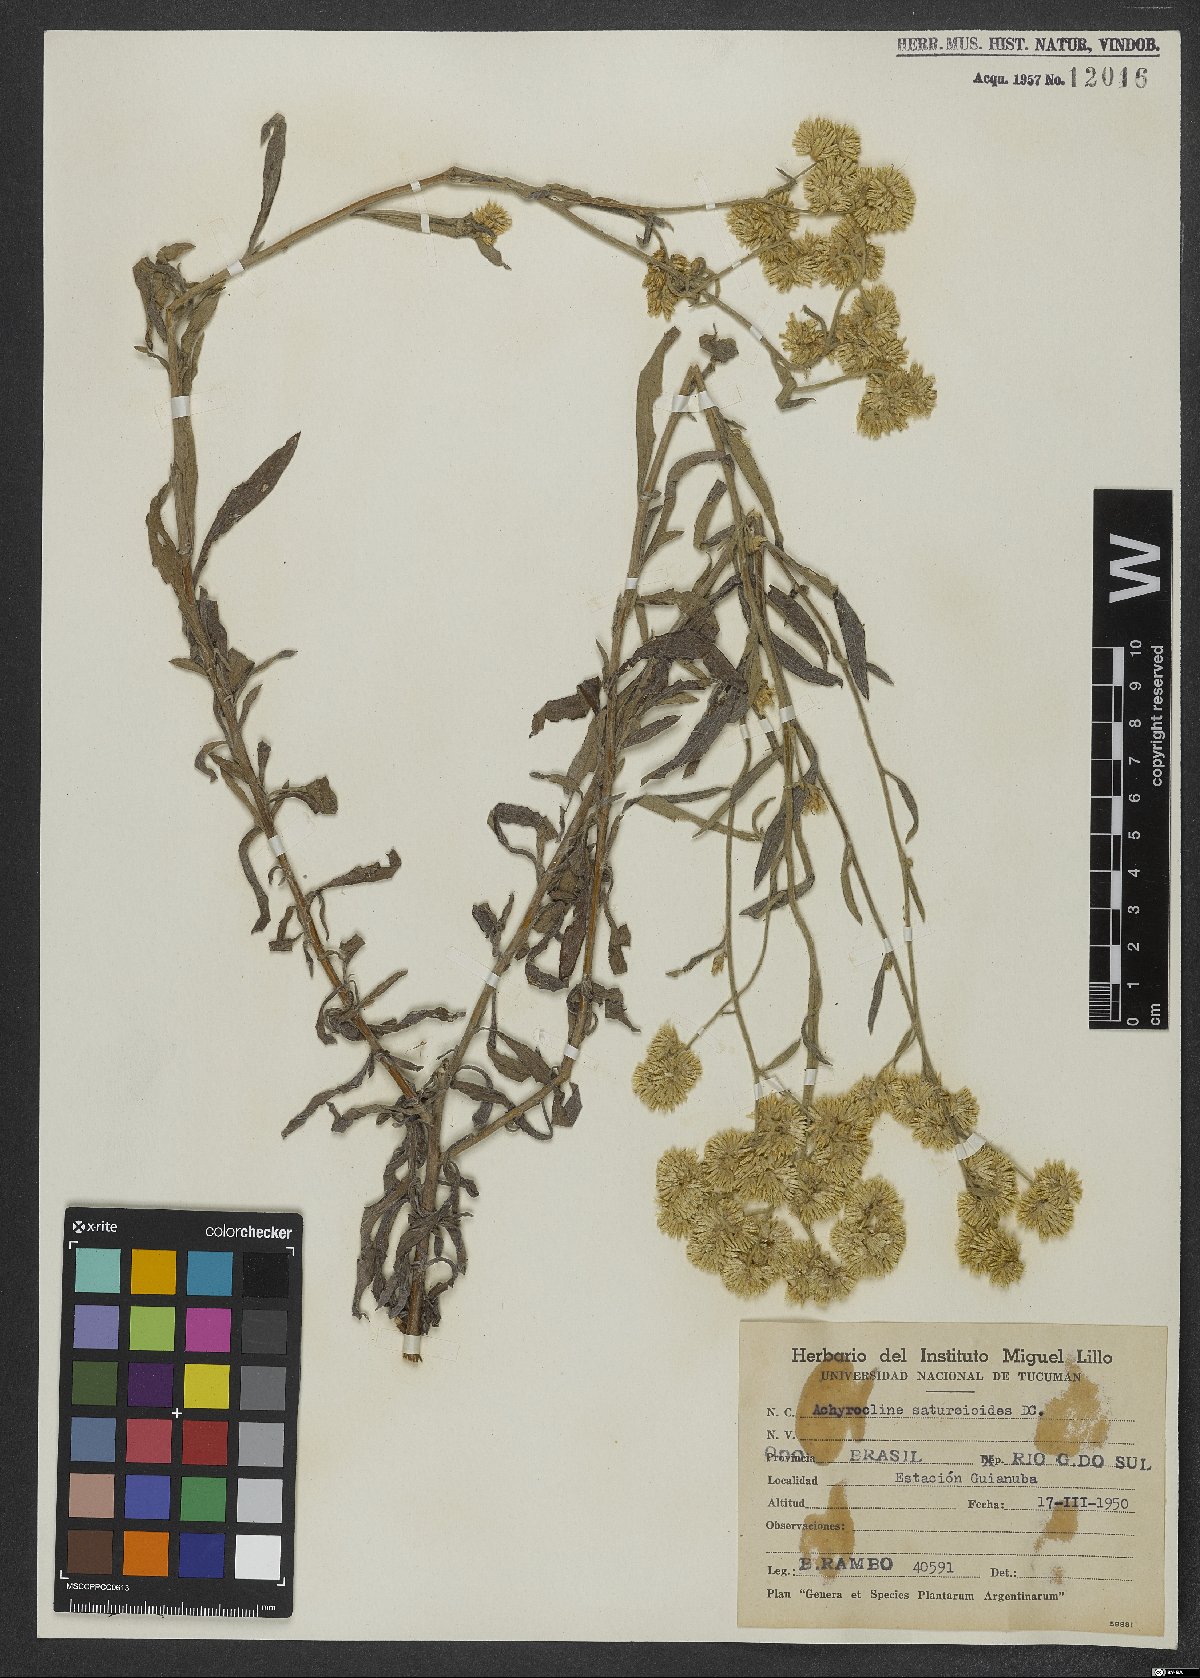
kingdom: Plantae
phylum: Tracheophyta
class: Magnoliopsida
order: Asterales
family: Asteraceae
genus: Achyrocline
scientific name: Achyrocline satureioides
